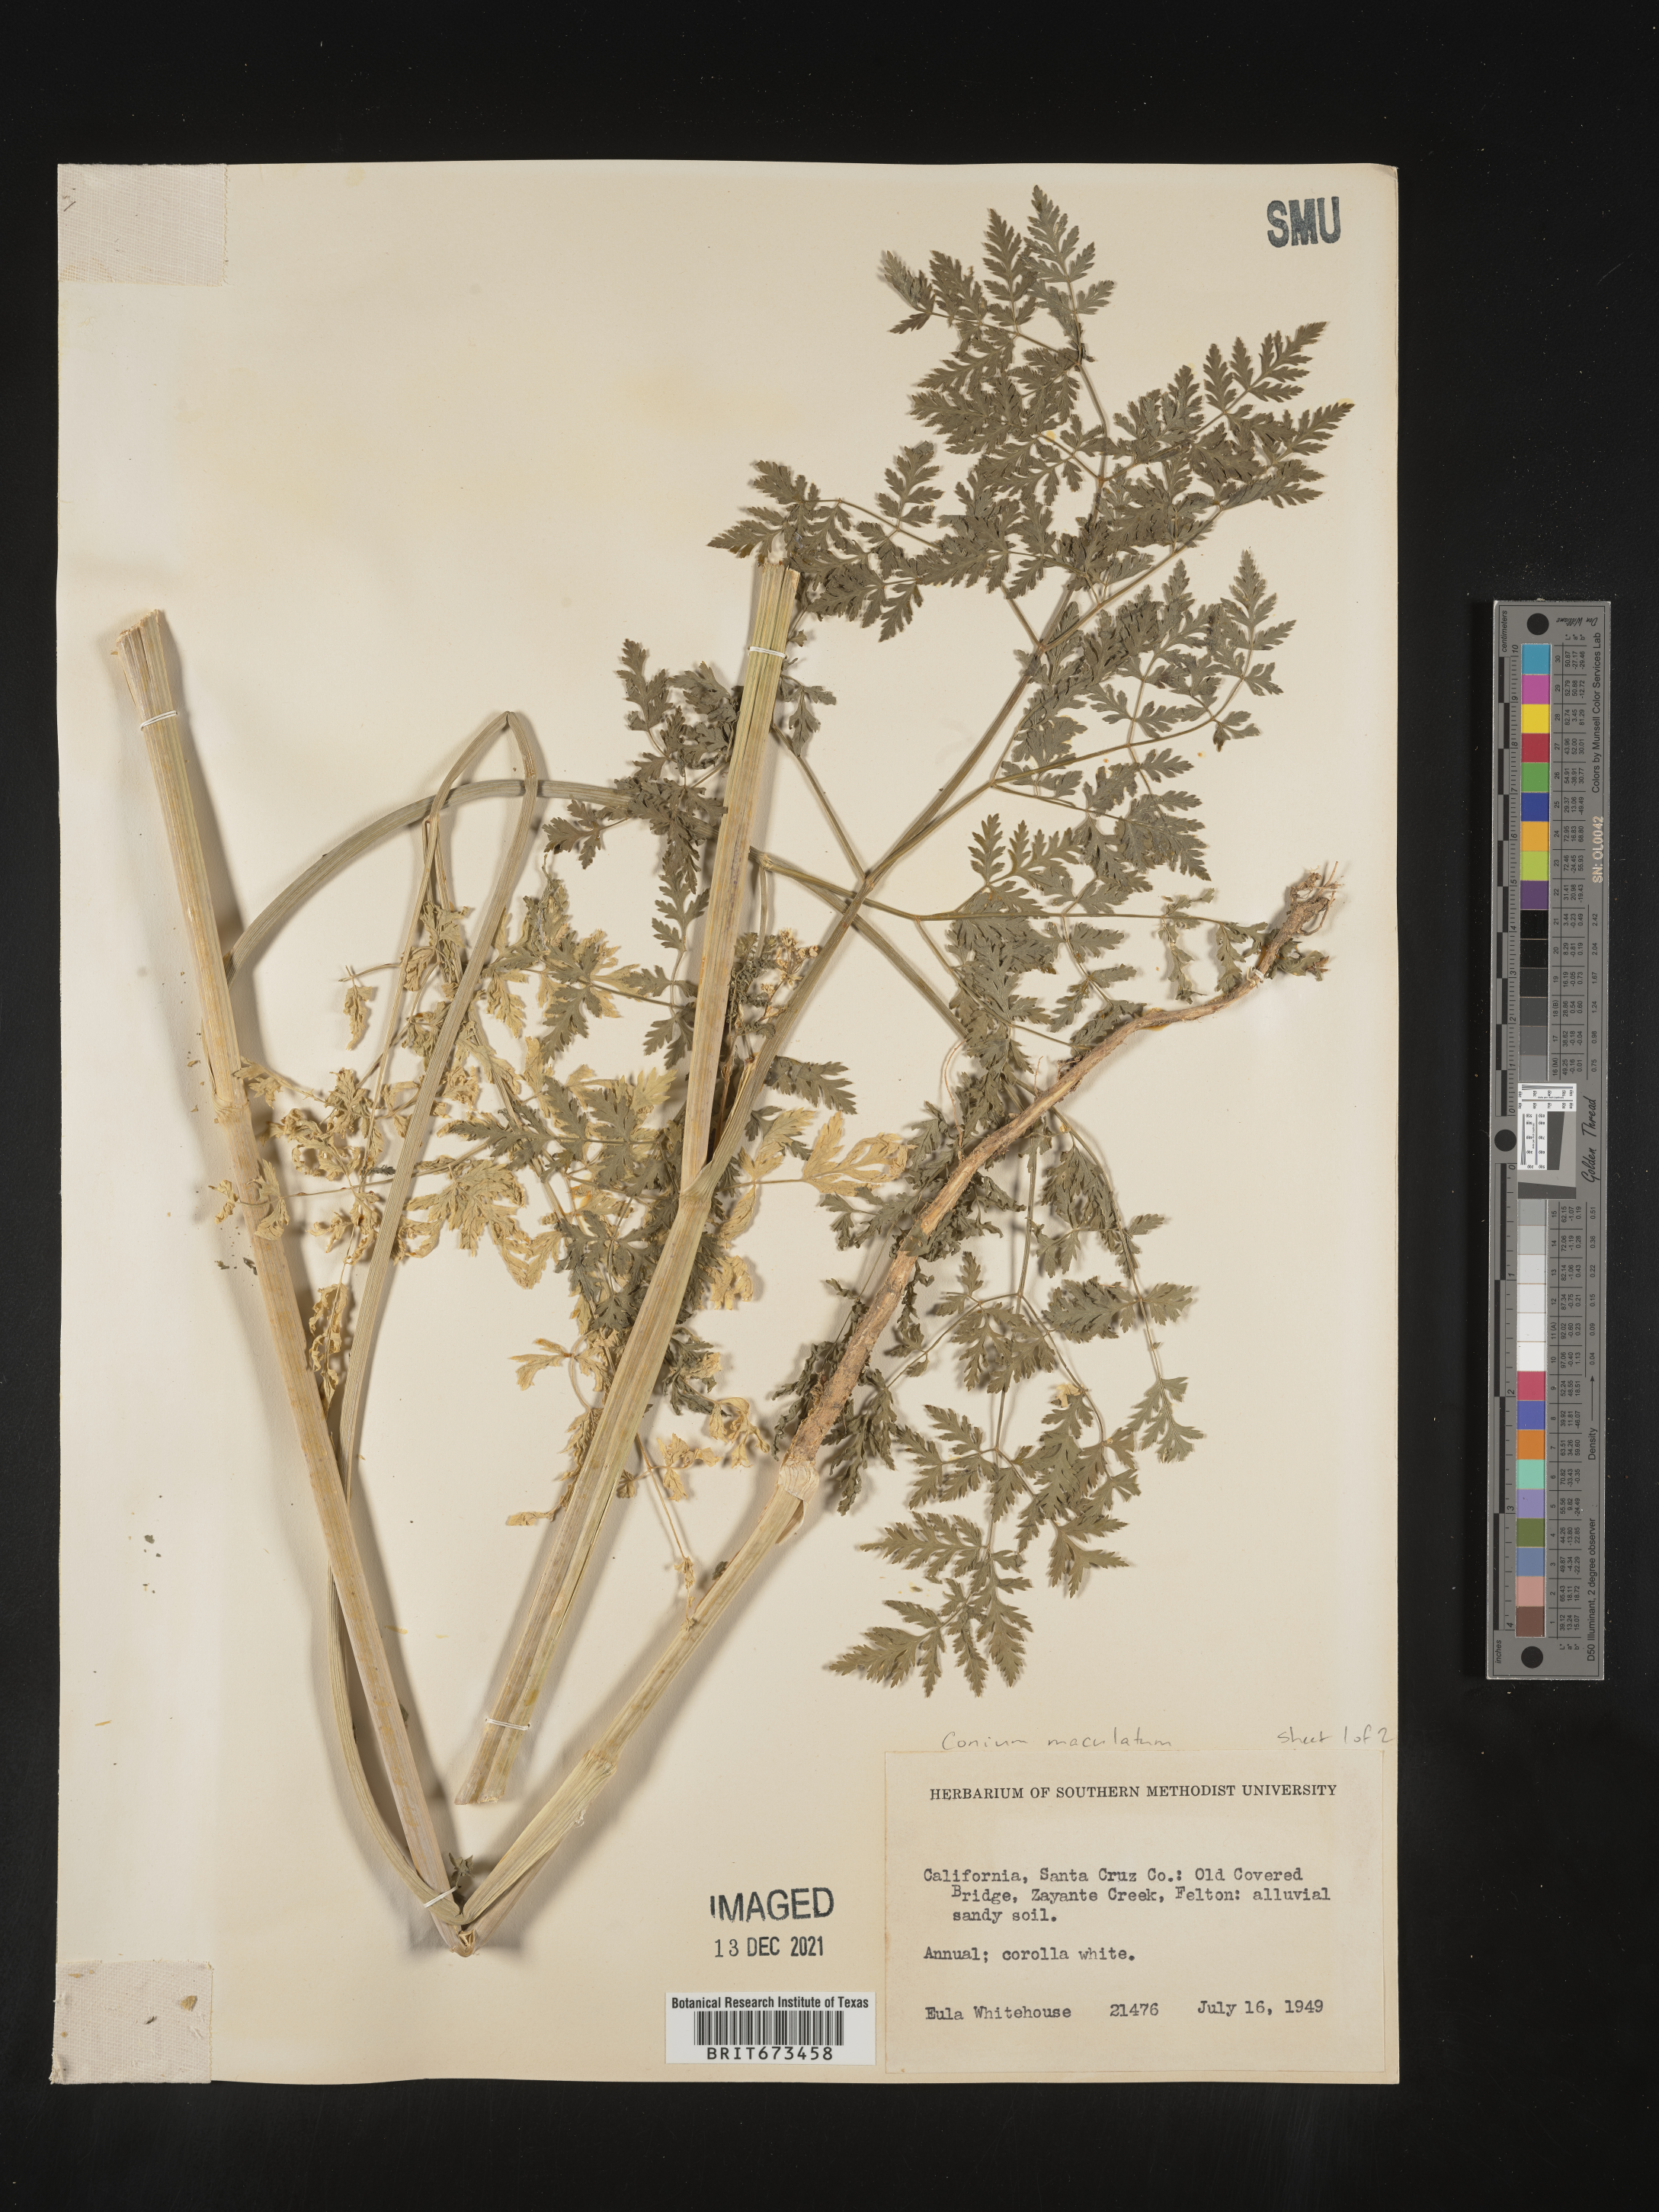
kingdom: Plantae
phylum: Tracheophyta
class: Magnoliopsida
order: Apiales
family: Apiaceae
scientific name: Apiaceae
